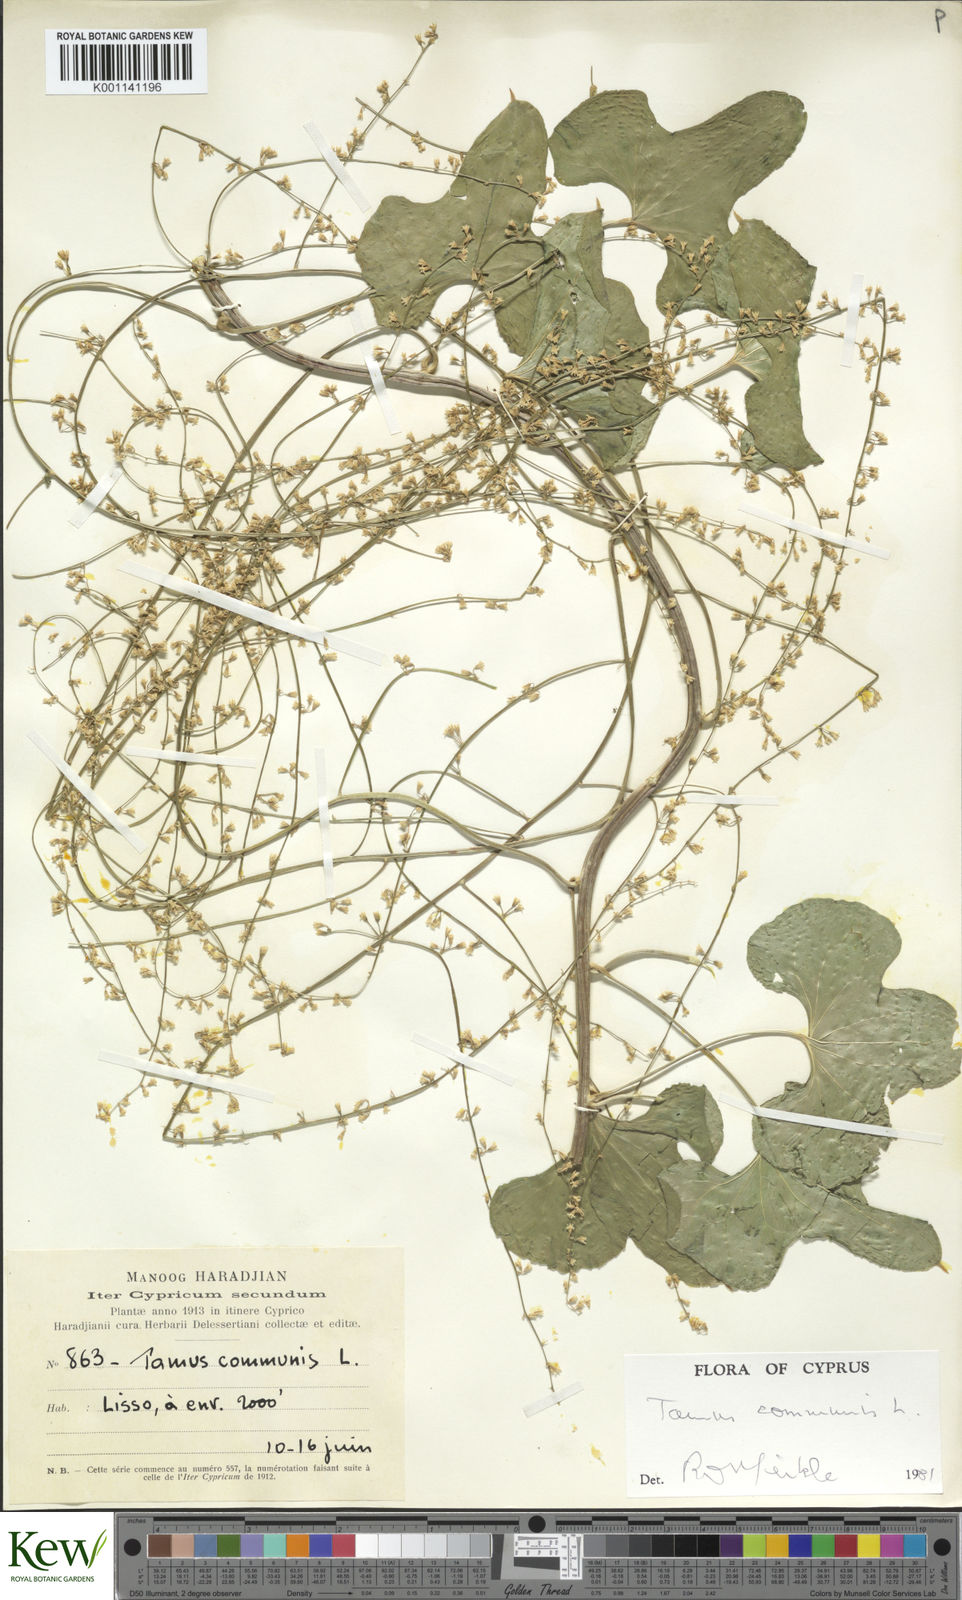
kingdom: Plantae
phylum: Tracheophyta
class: Liliopsida
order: Dioscoreales
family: Dioscoreaceae
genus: Dioscorea
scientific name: Dioscorea communis
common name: Black-bindweed
